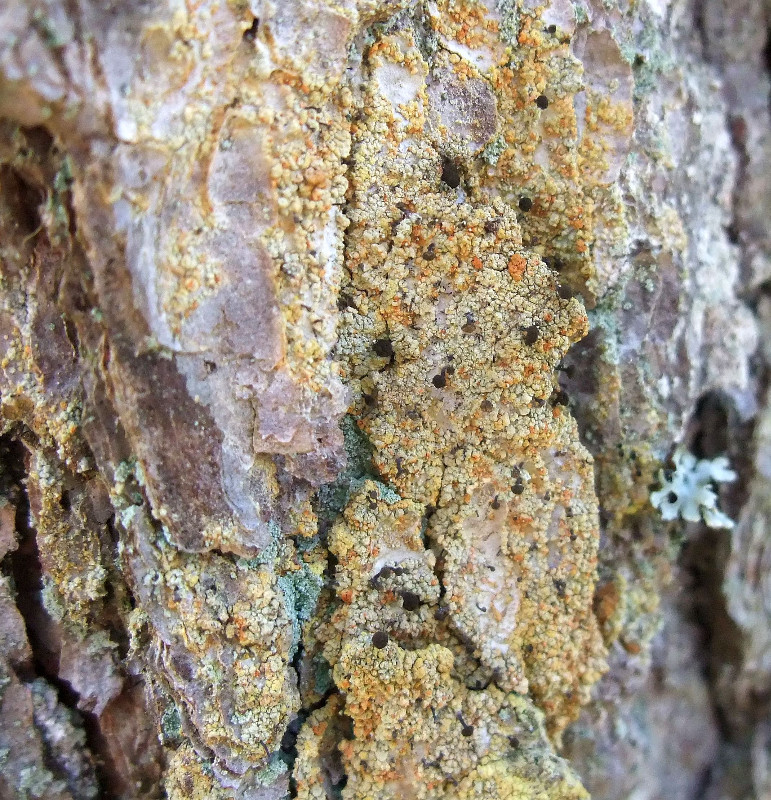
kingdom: Fungi
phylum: Ascomycota
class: Coniocybomycetes
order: Coniocybales
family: Coniocybaceae
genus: Chaenotheca
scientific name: Chaenotheca ferruginea
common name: rustbrun knappenålslav
